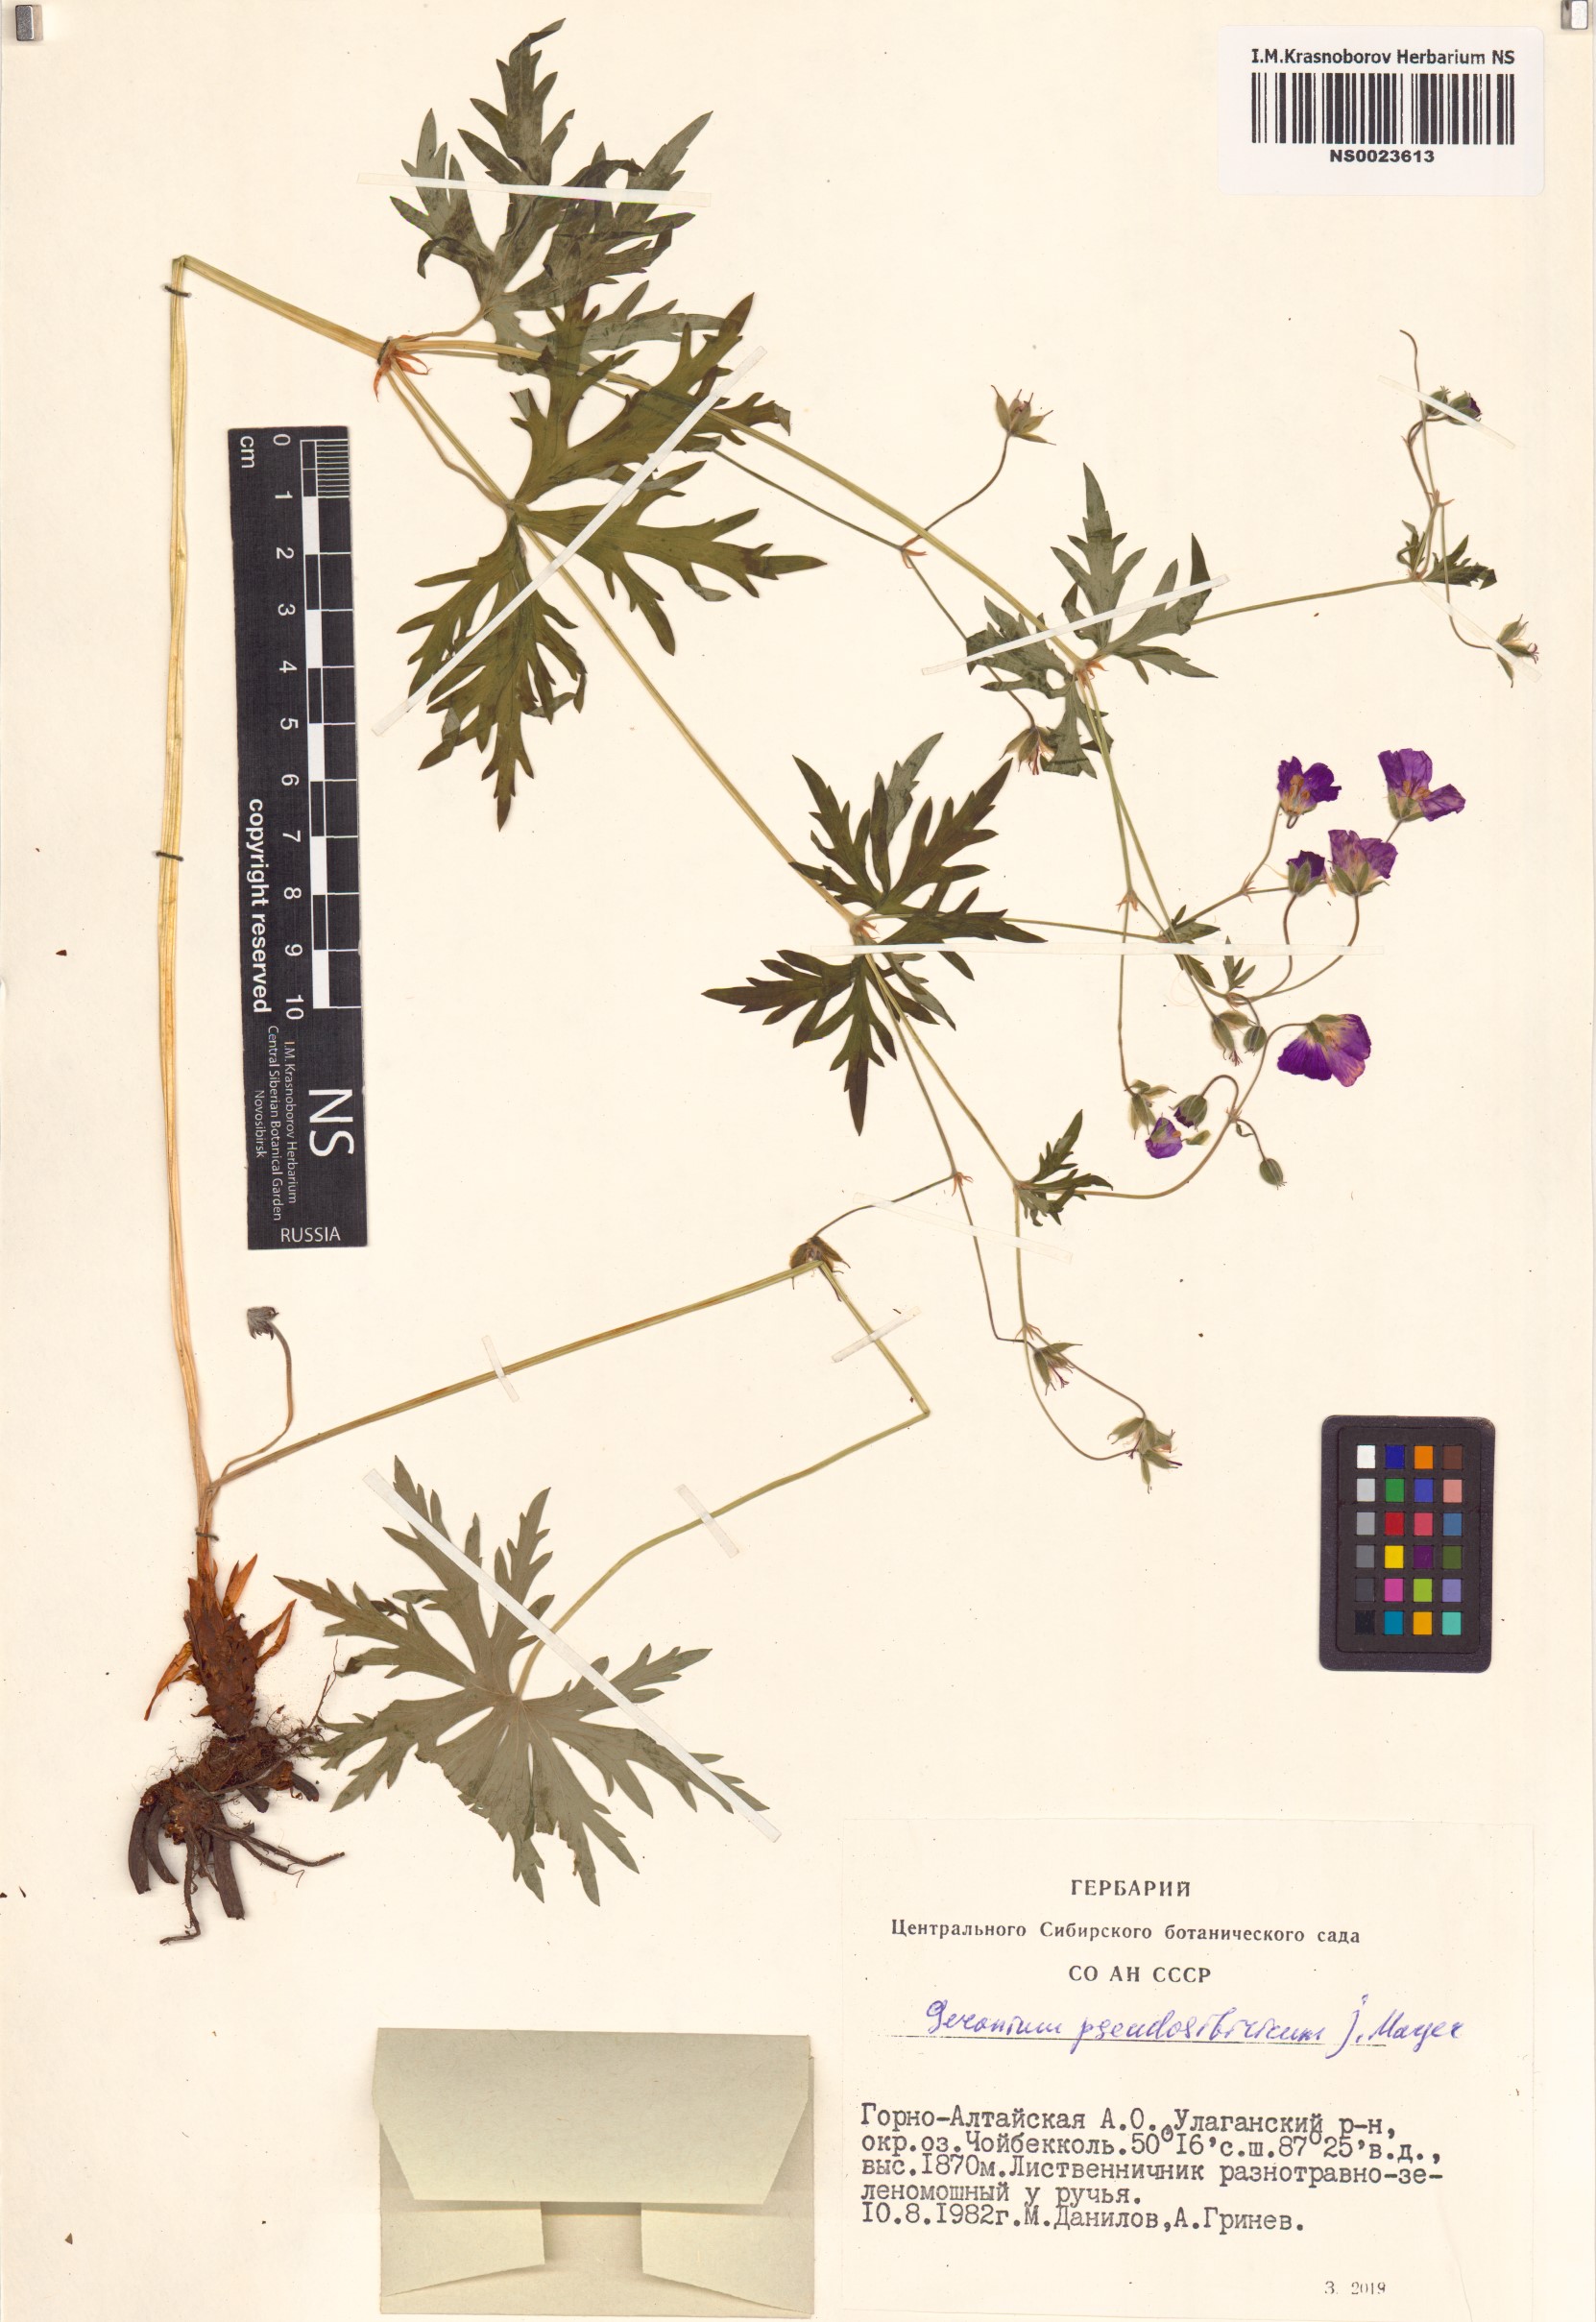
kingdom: Plantae
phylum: Tracheophyta
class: Magnoliopsida
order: Geraniales
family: Geraniaceae
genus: Geranium
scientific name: Geranium pseudosibiricum
